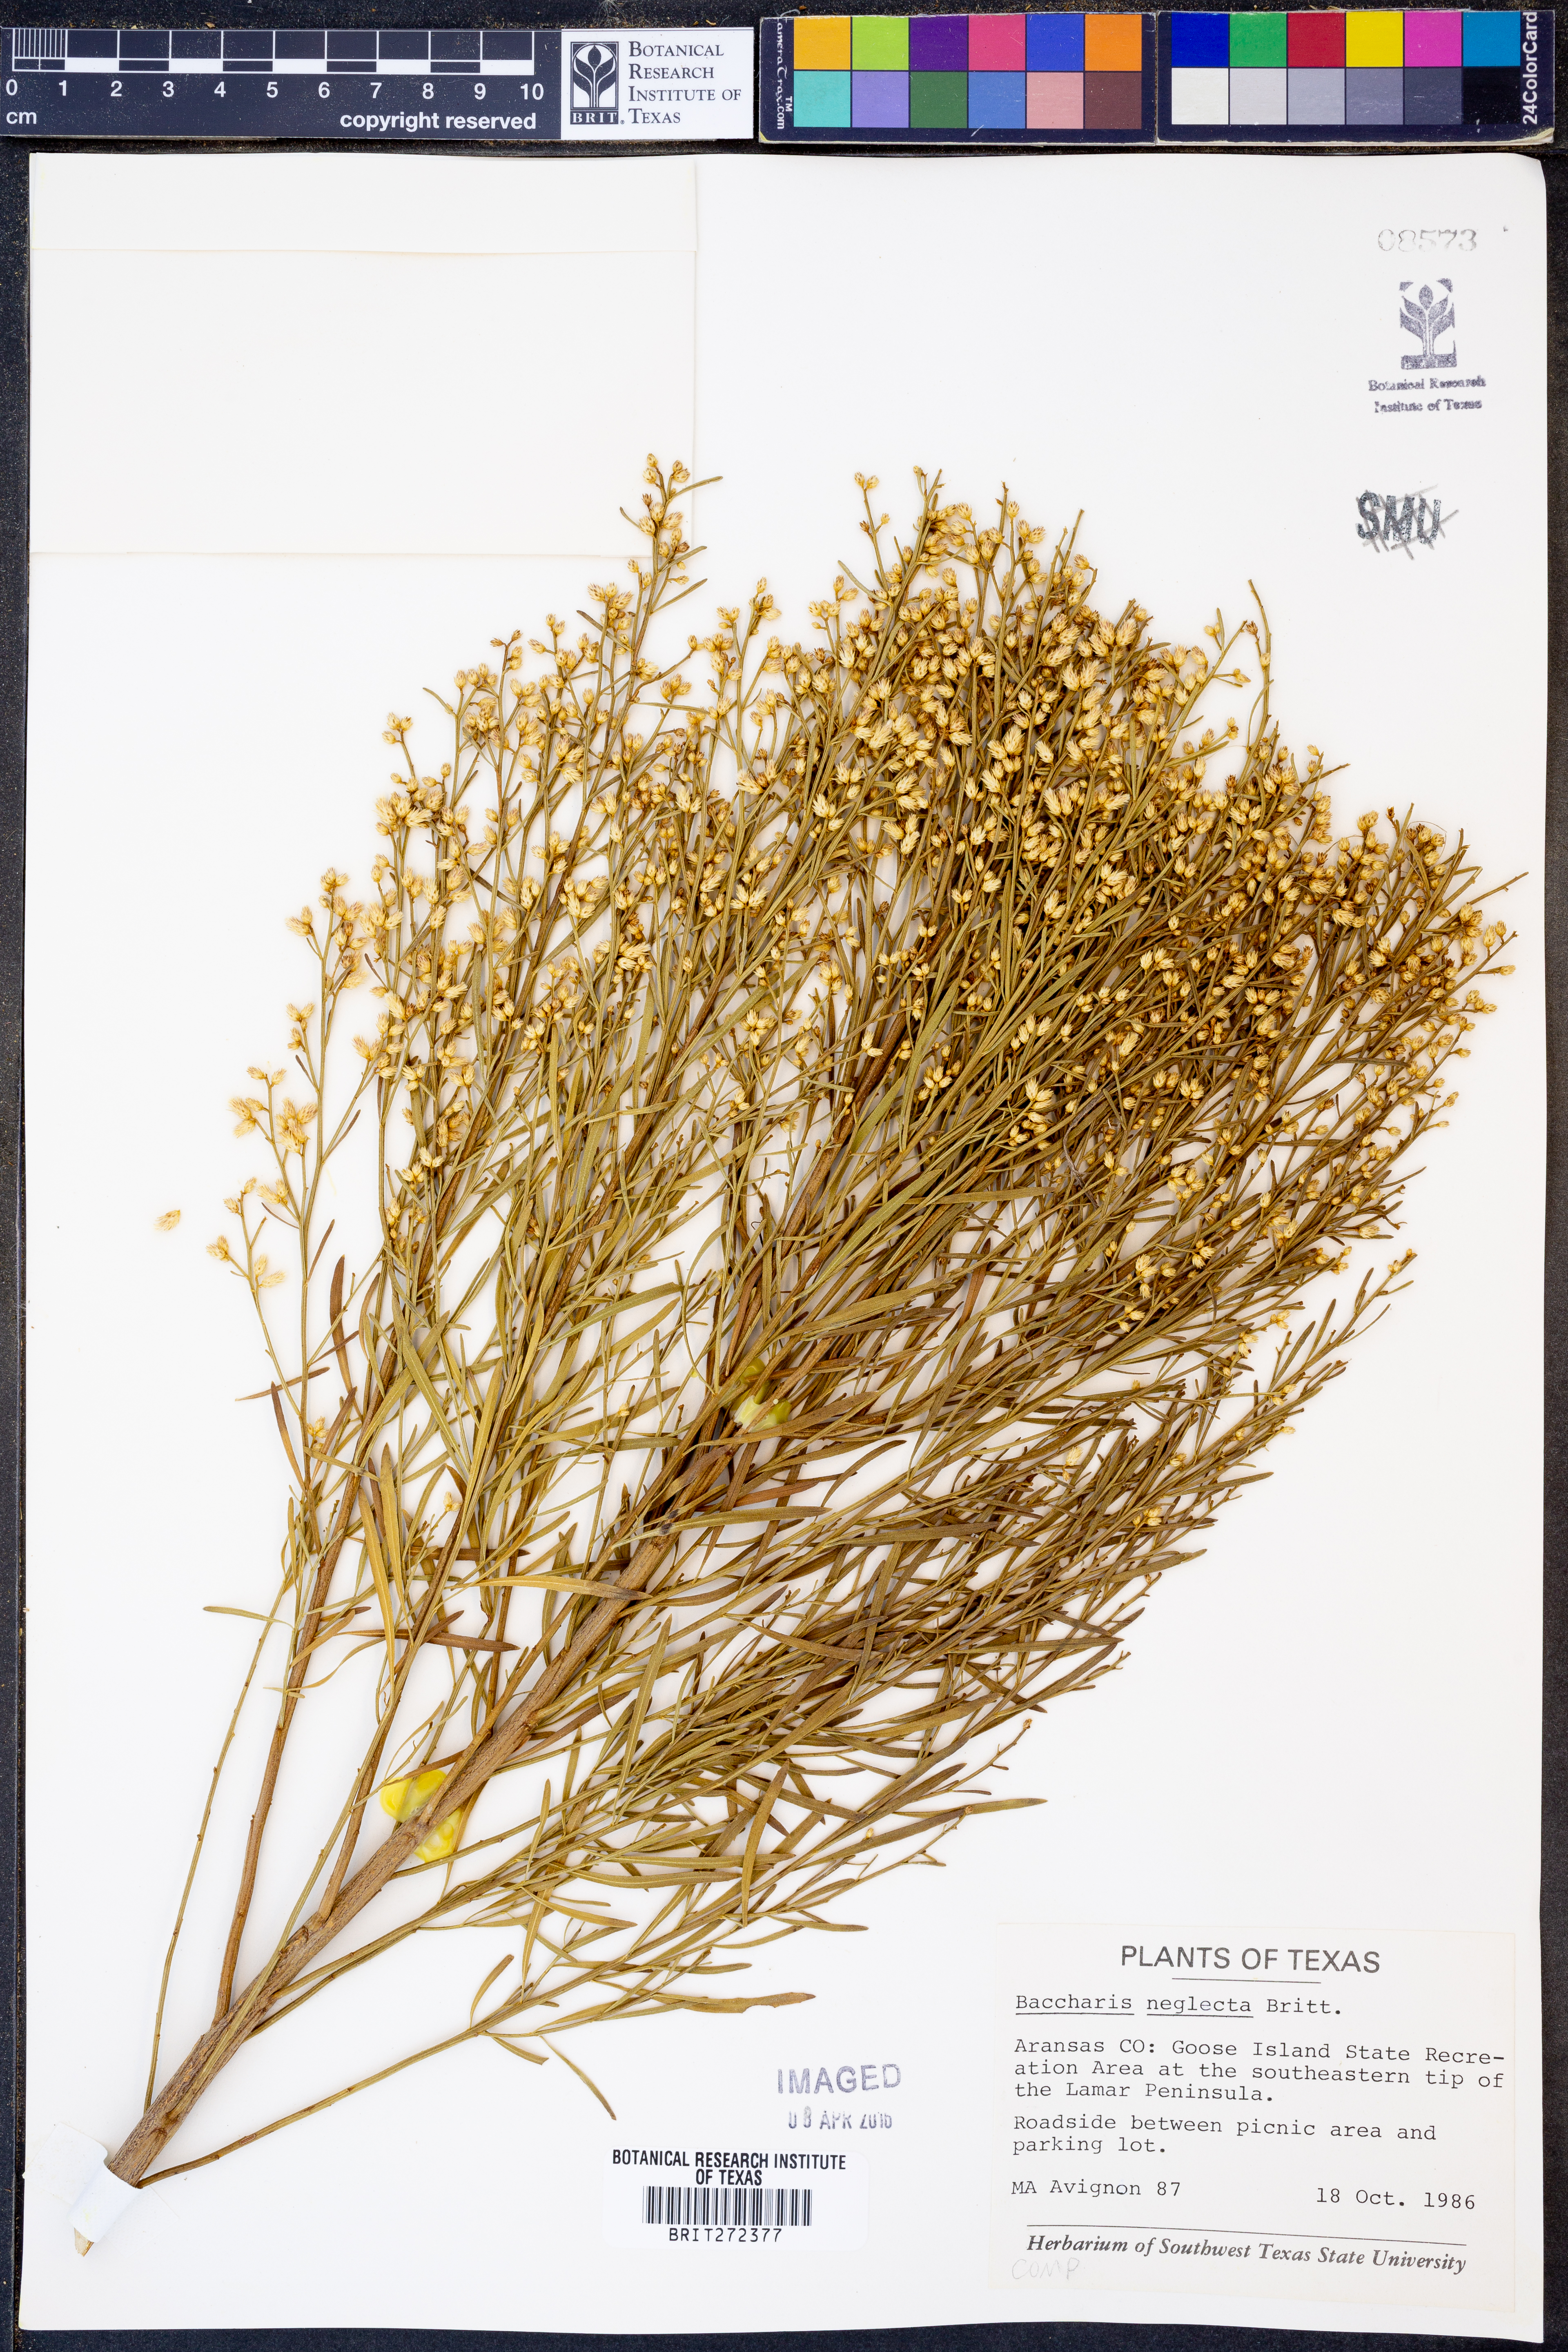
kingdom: Plantae
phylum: Tracheophyta
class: Magnoliopsida
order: Asterales
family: Asteraceae
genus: Baccharis
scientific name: Baccharis neglecta
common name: Roosevelt-weed
